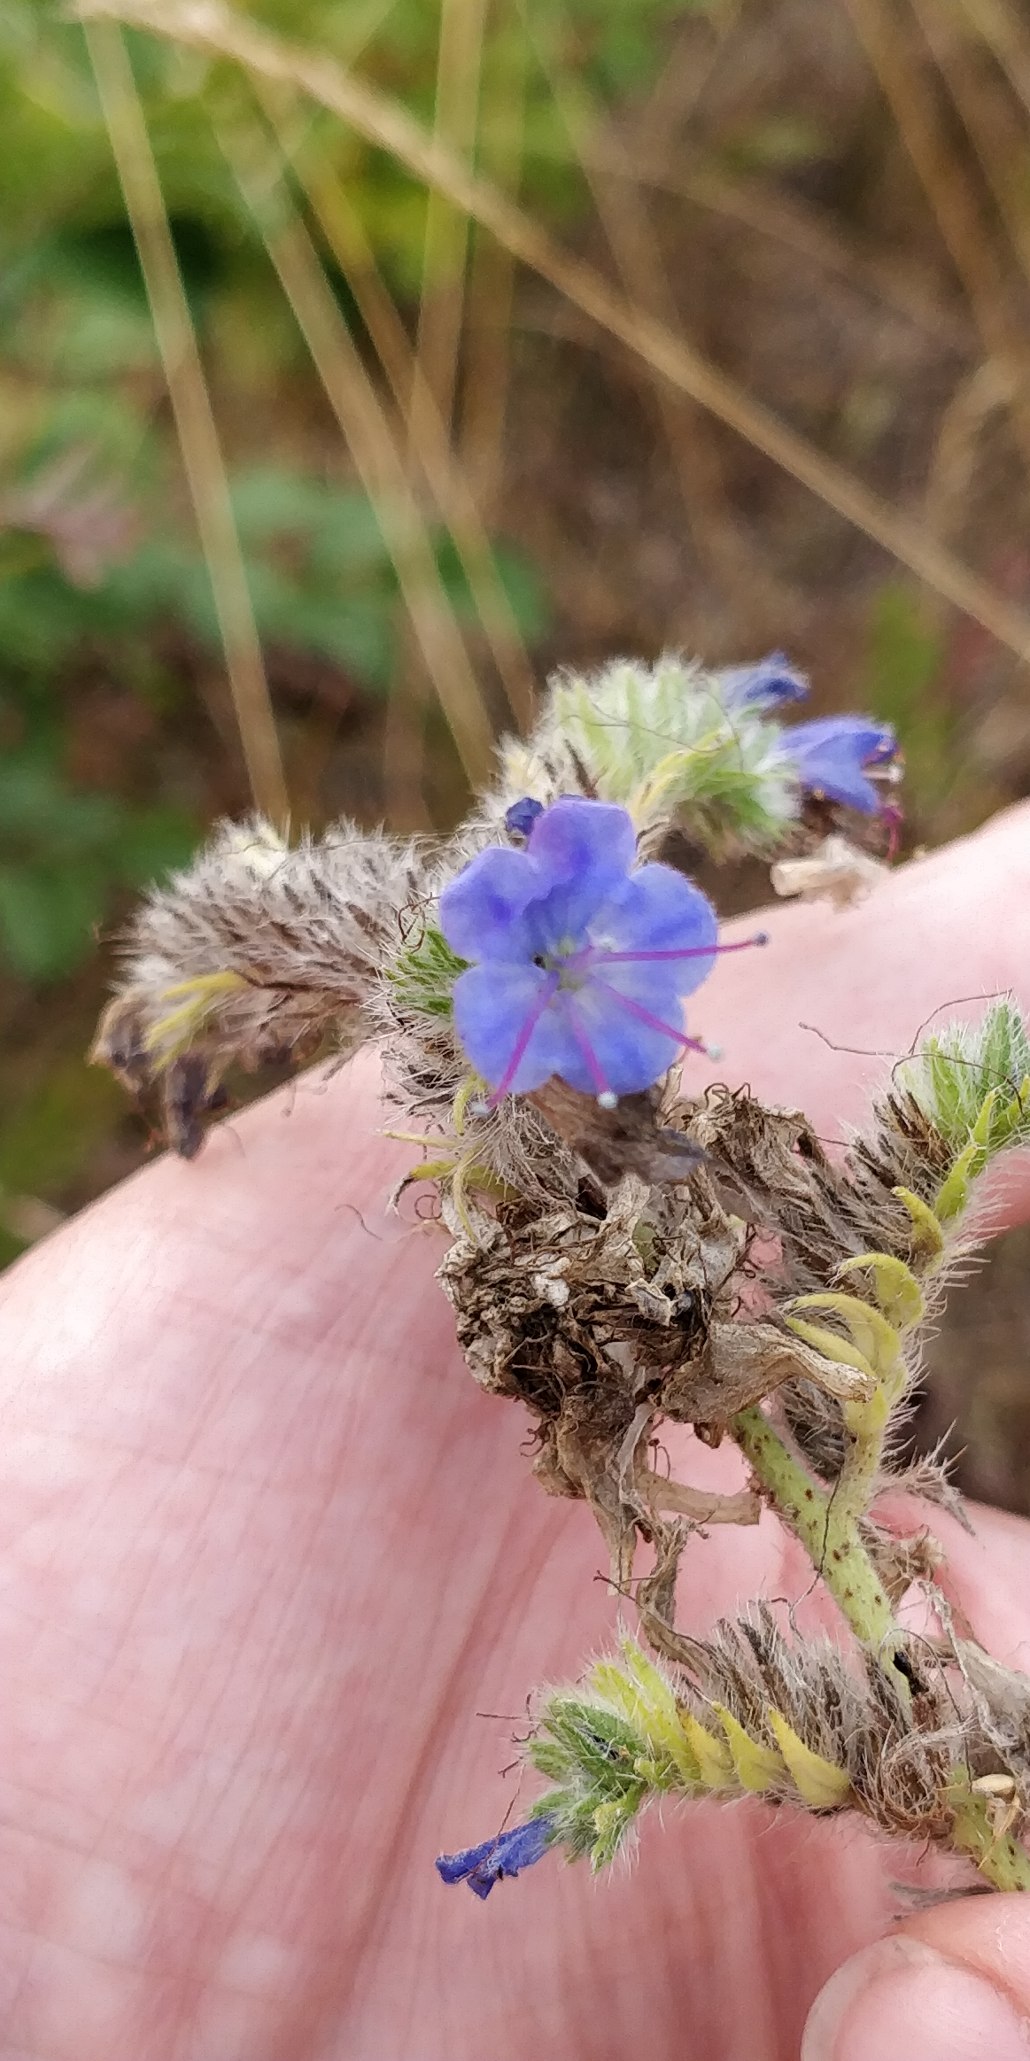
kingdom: Plantae
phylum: Tracheophyta
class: Magnoliopsida
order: Boraginales
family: Boraginaceae
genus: Echium
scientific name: Echium vulgare
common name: Slangehoved
